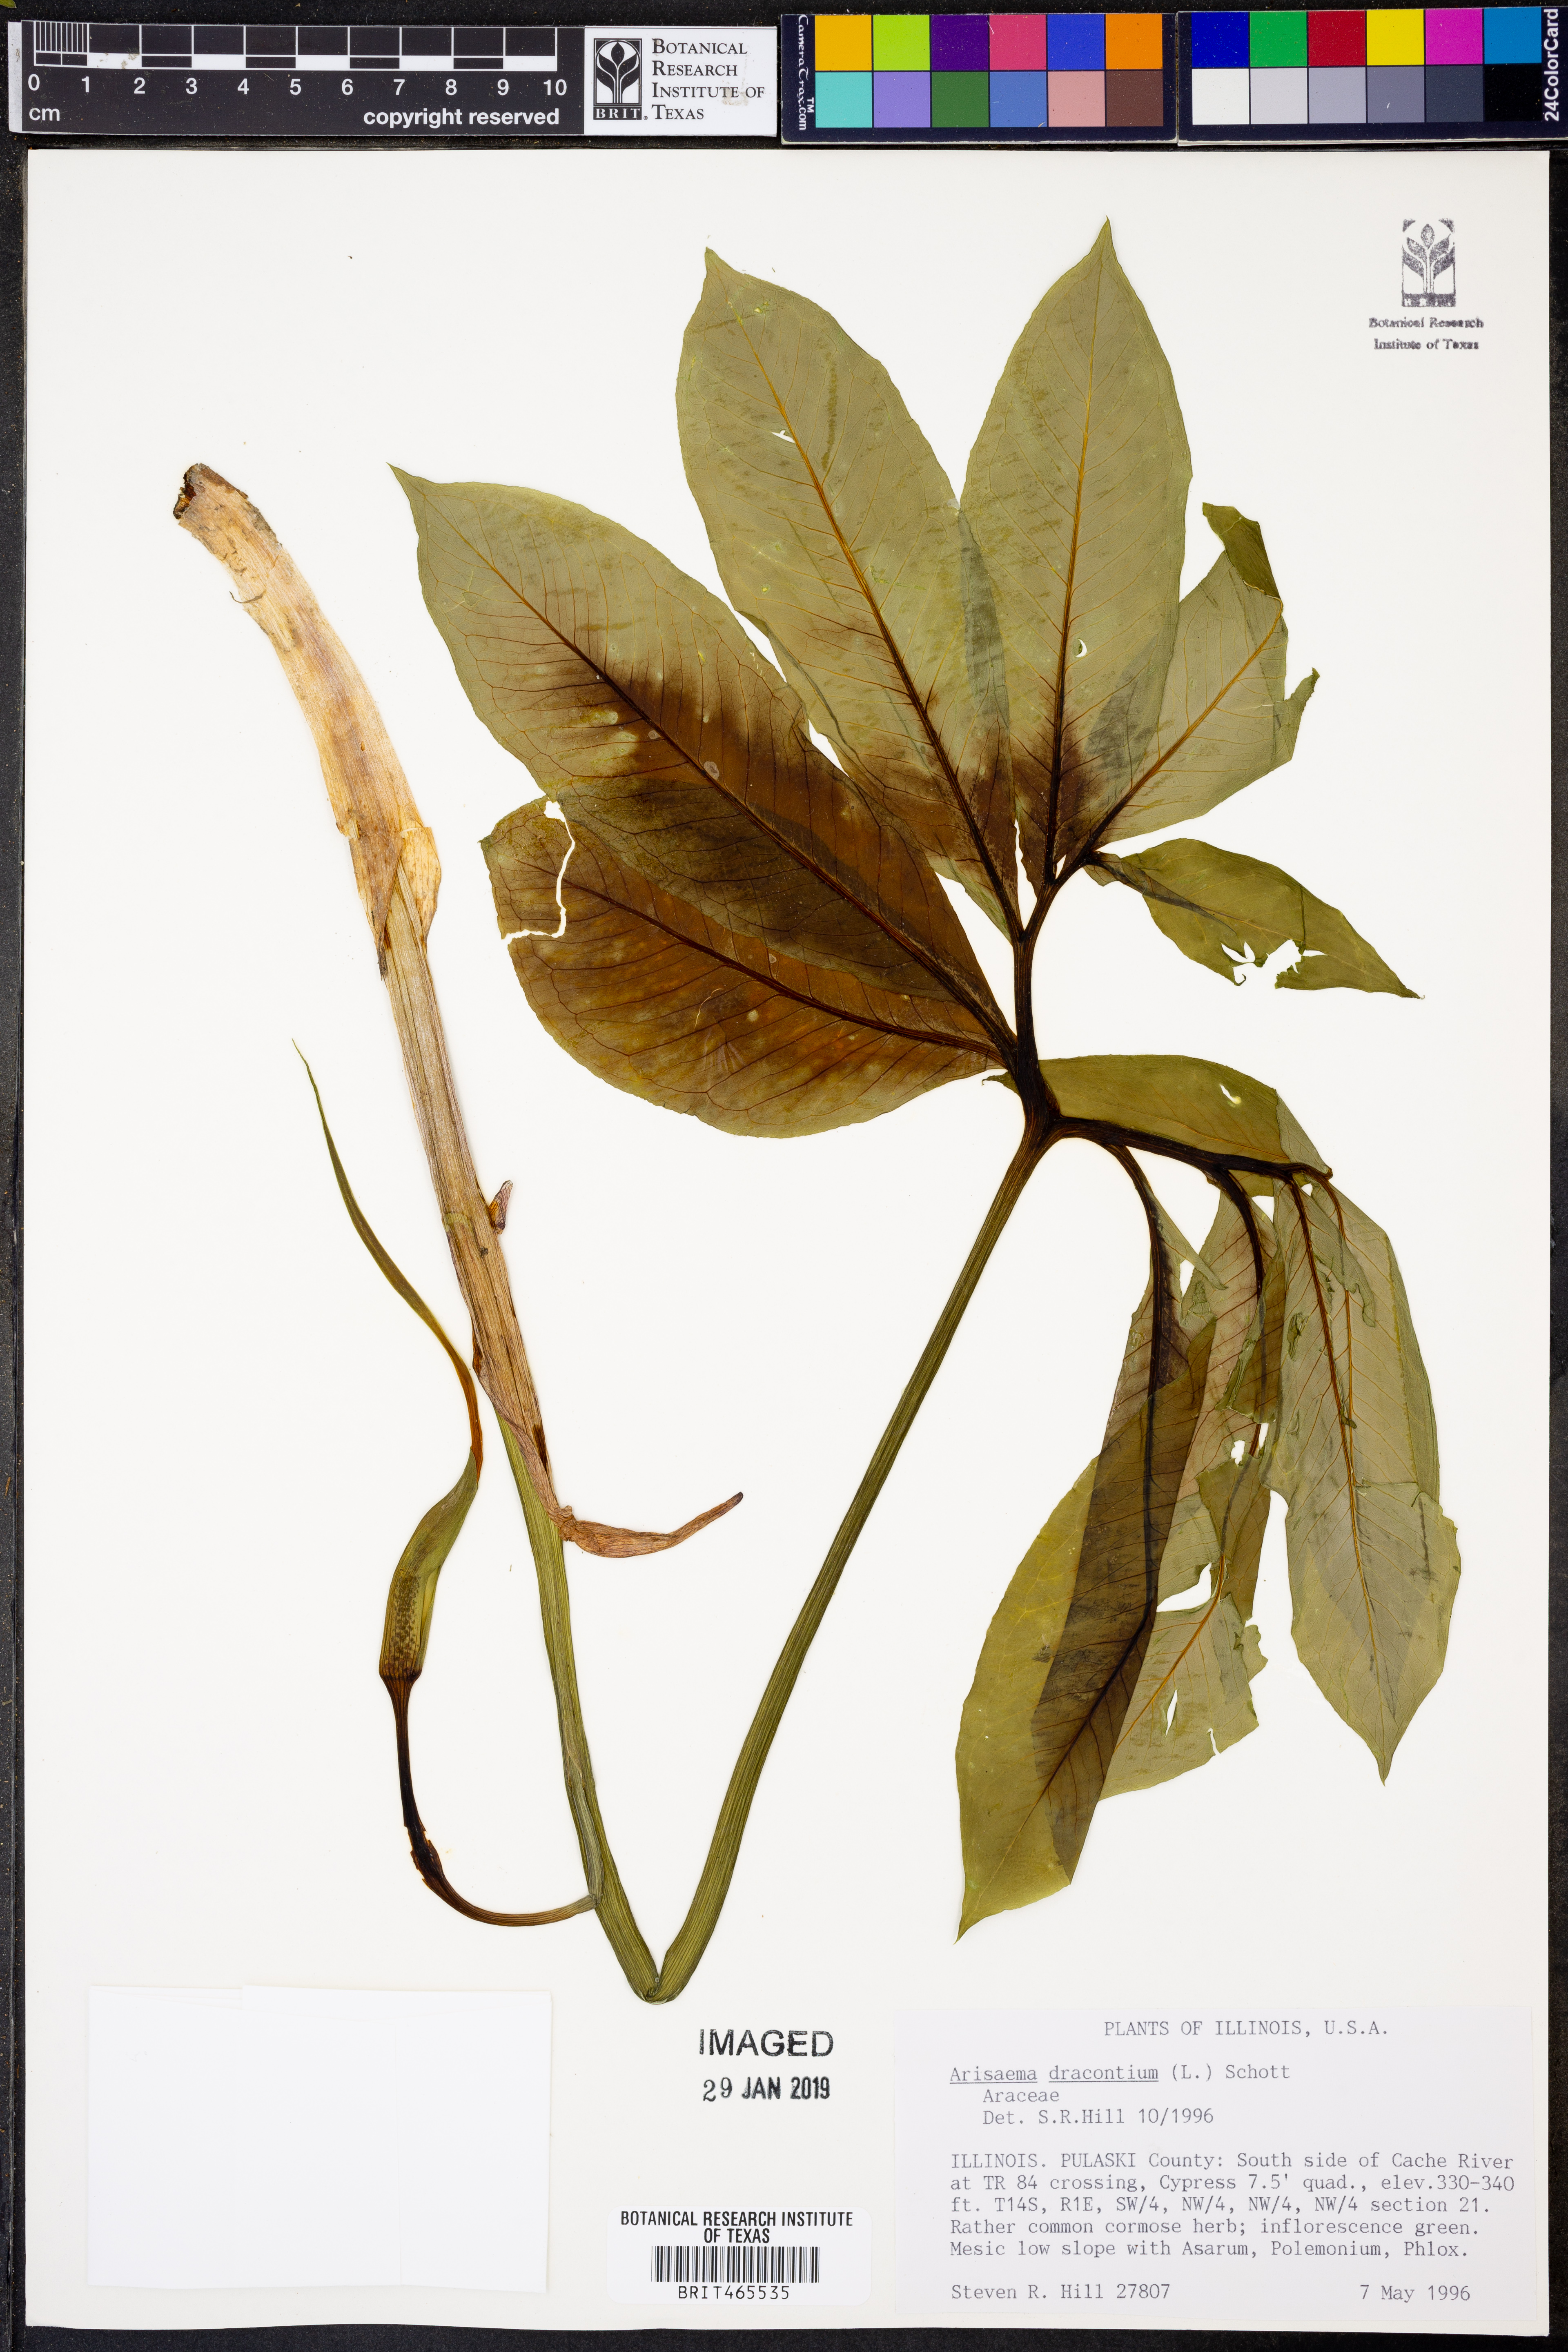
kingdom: Plantae
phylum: Tracheophyta
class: Liliopsida
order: Alismatales
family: Araceae
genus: Arisaema
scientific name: Arisaema dracontium
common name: Dragon-arum
